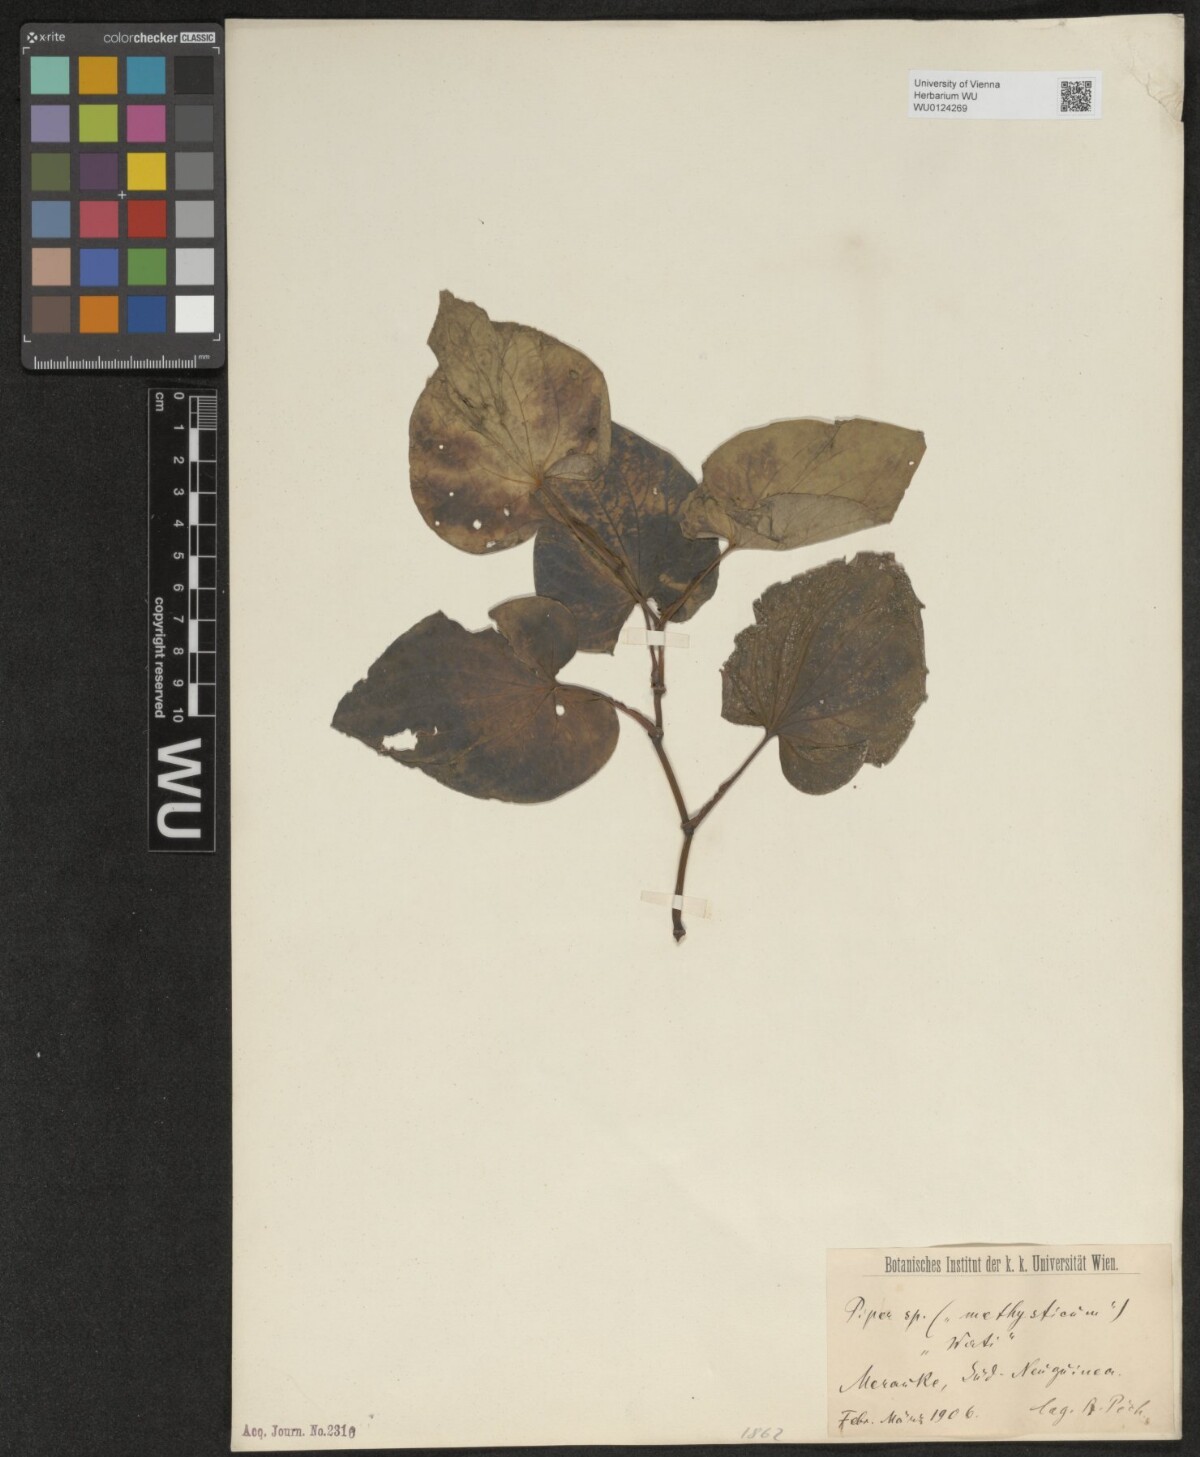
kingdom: Plantae
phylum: Tracheophyta
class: Magnoliopsida
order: Piperales
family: Piperaceae
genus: Piper
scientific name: Piper
